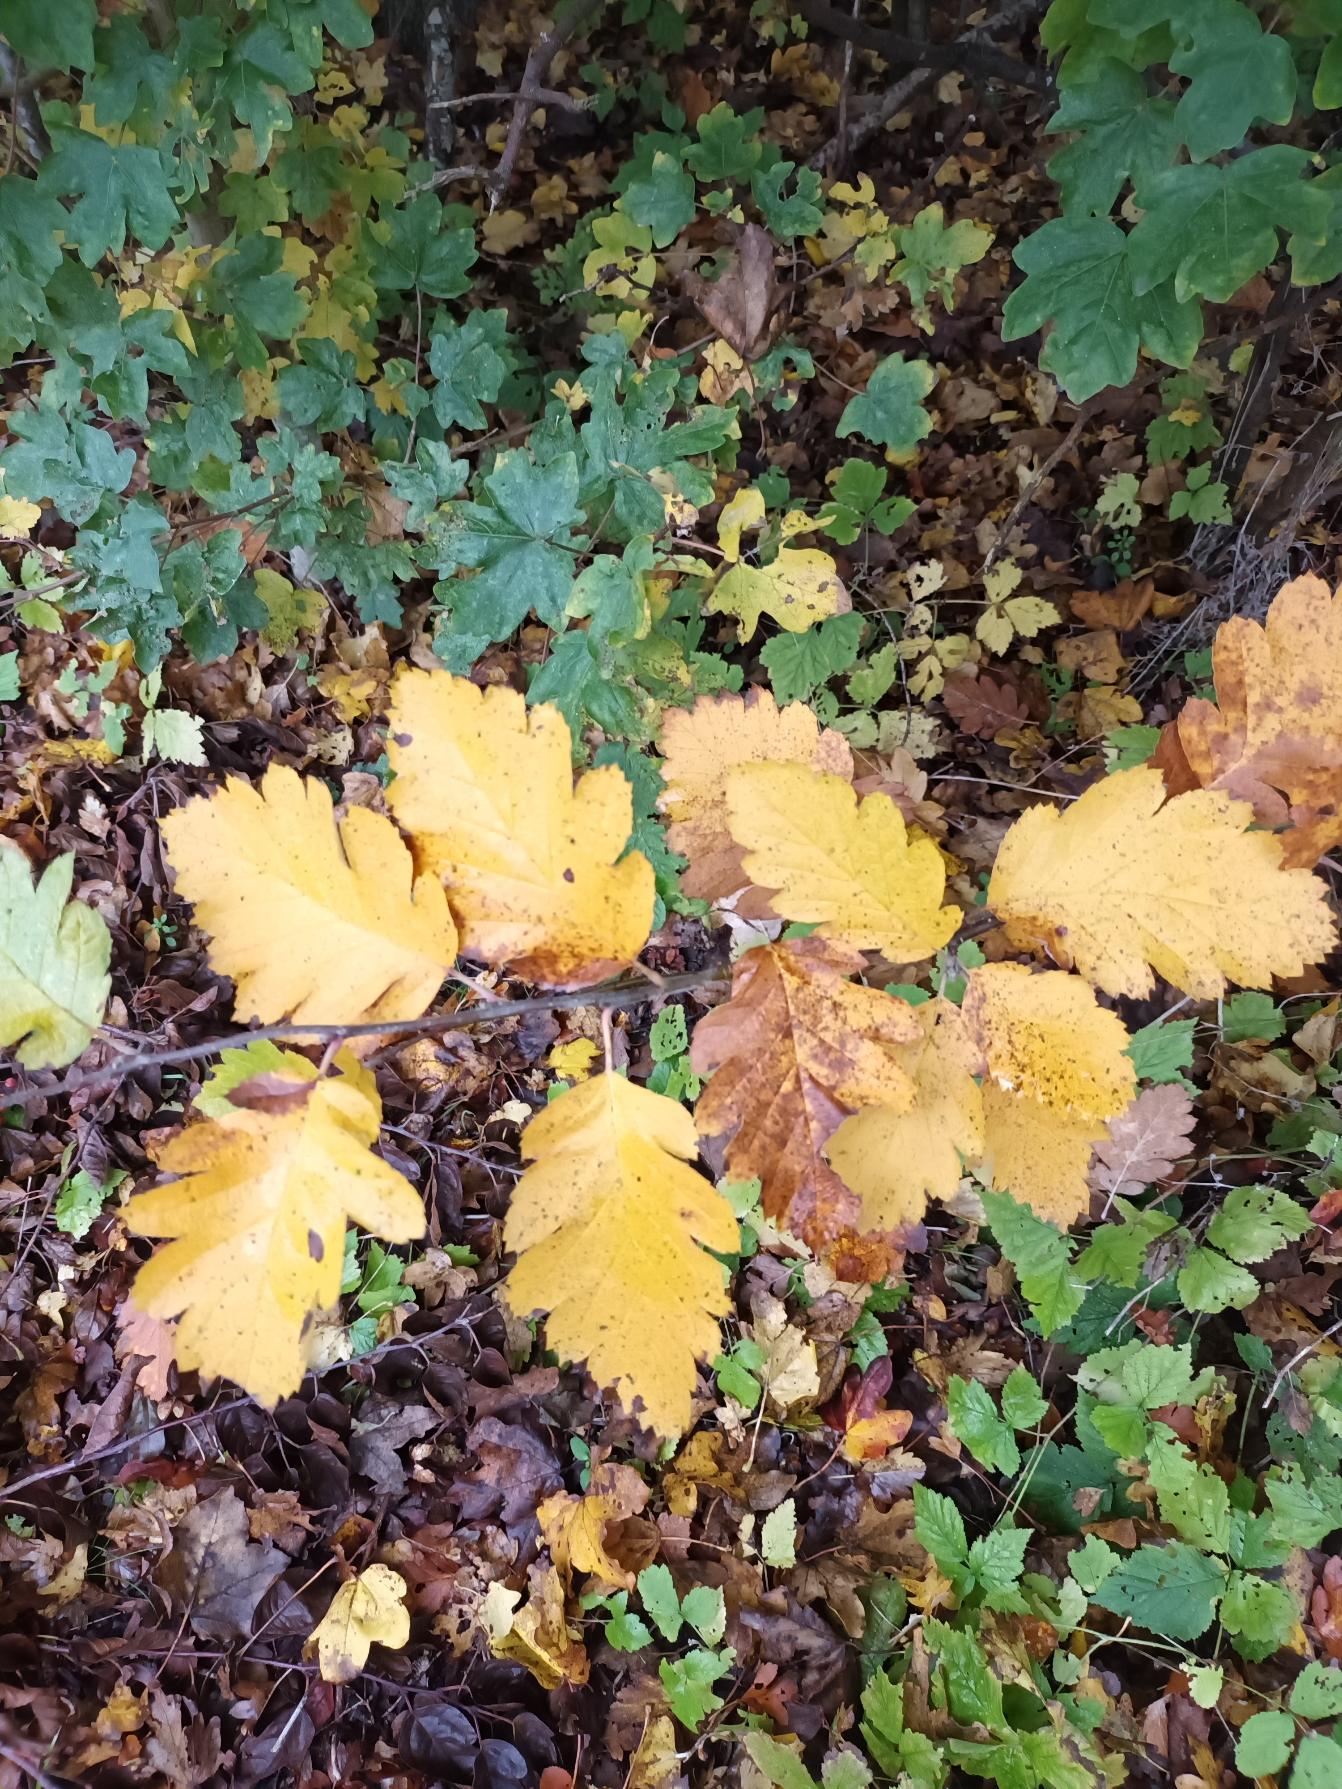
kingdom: Plantae
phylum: Tracheophyta
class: Magnoliopsida
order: Rosales
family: Rosaceae
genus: Scandosorbus
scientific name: Scandosorbus intermedia
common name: Selje-røn
